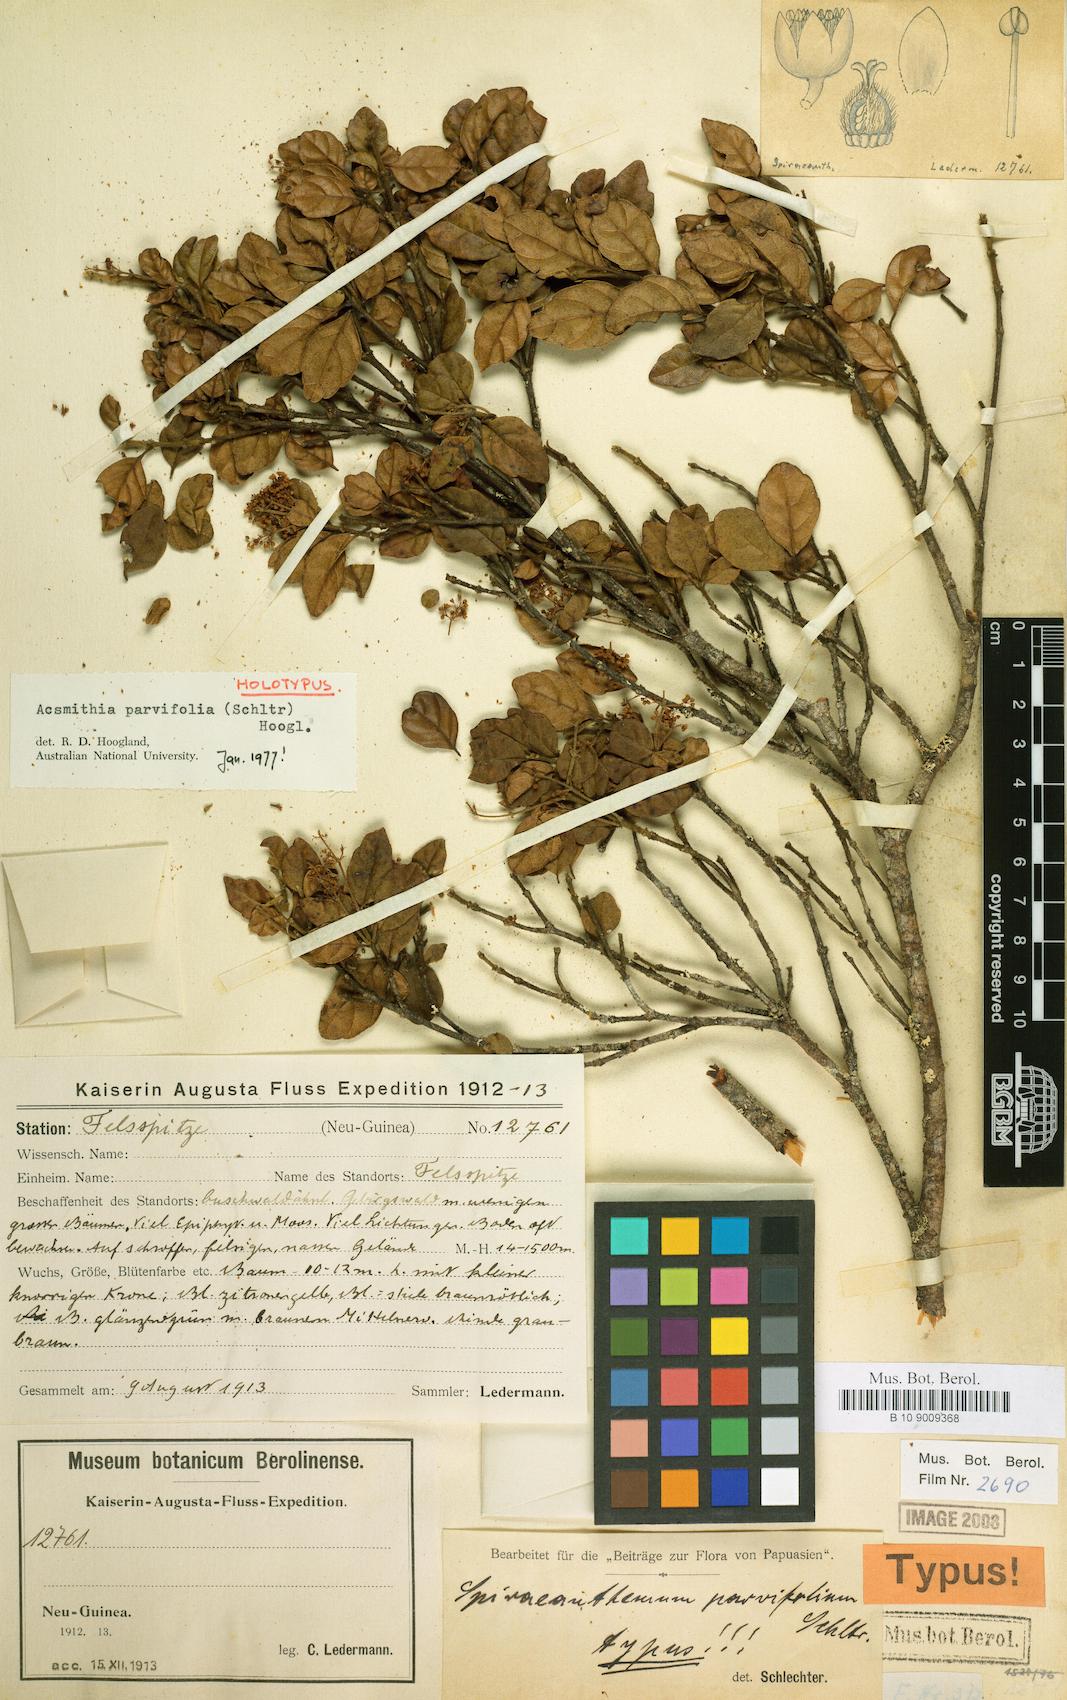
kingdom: Plantae
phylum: Tracheophyta
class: Magnoliopsida
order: Oxalidales
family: Cunoniaceae
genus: Spiraeanthemum
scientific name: Spiraeanthemum parvifolium
